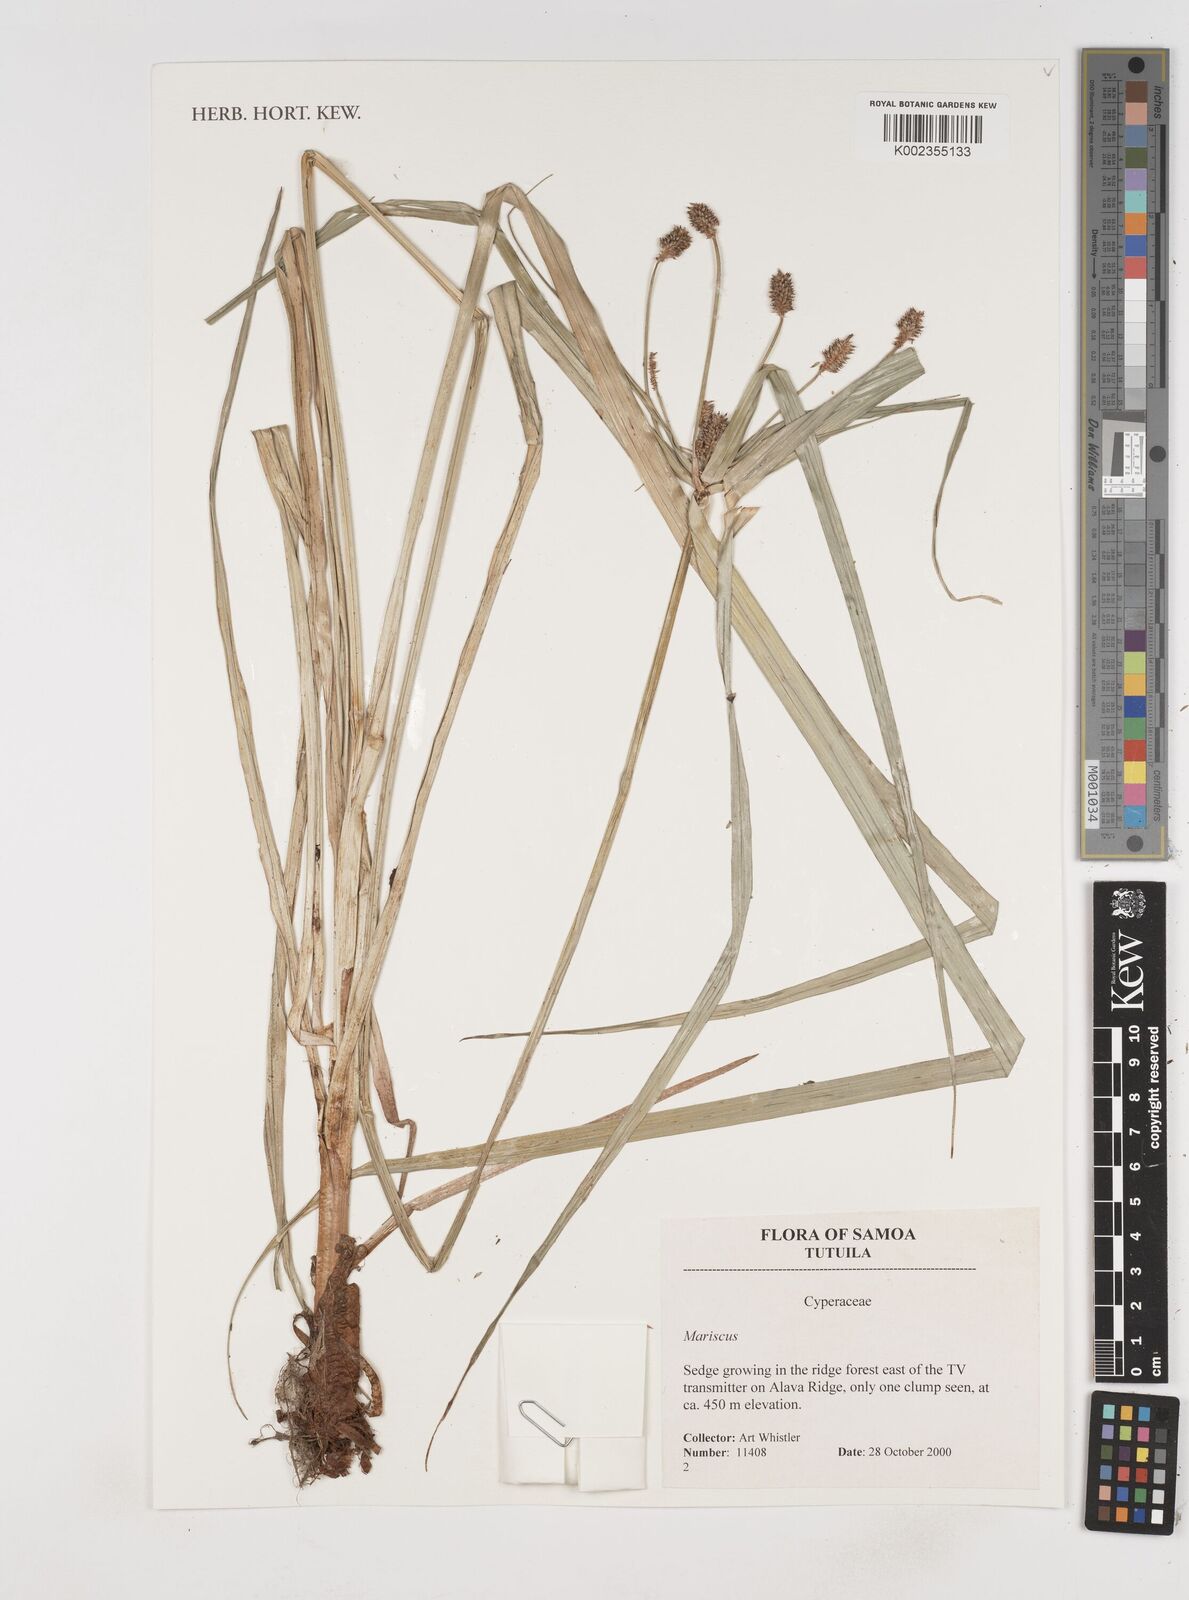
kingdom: Plantae
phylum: Tracheophyta
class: Liliopsida
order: Poales
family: Cyperaceae
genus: Cyperus
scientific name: Cyperus seemannianus
